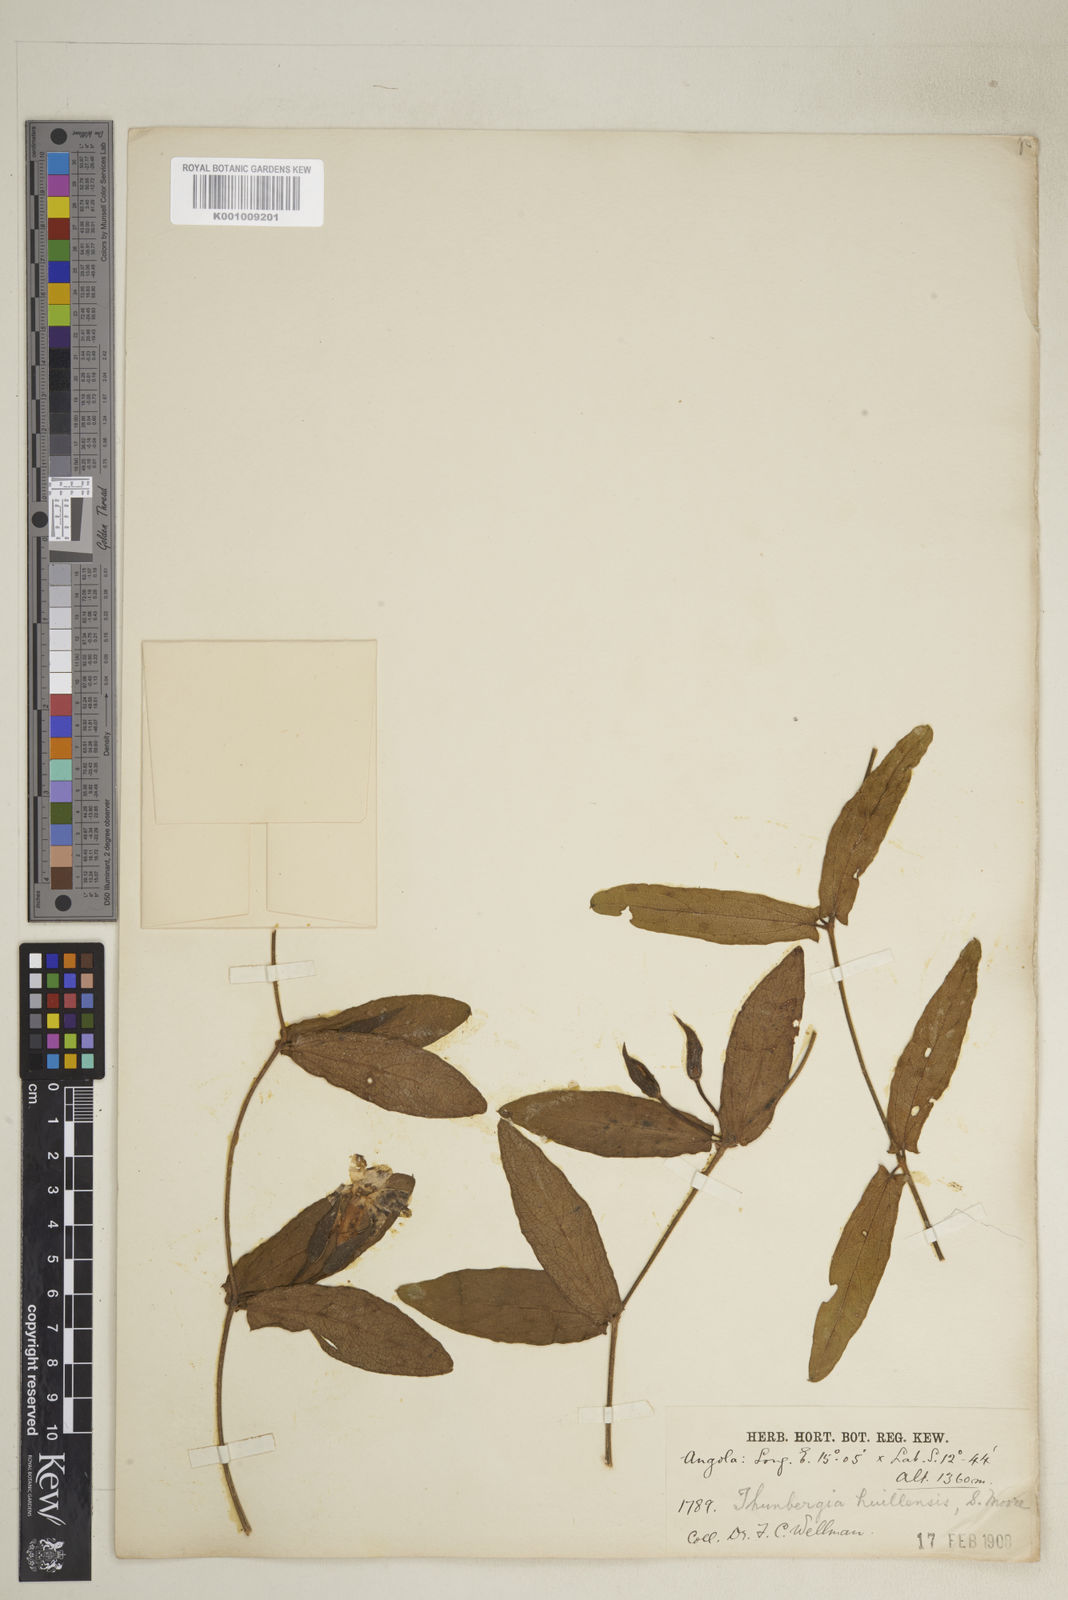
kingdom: Plantae
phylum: Tracheophyta
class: Magnoliopsida
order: Lamiales
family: Acanthaceae
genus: Thunbergia
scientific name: Thunbergia huillensis
